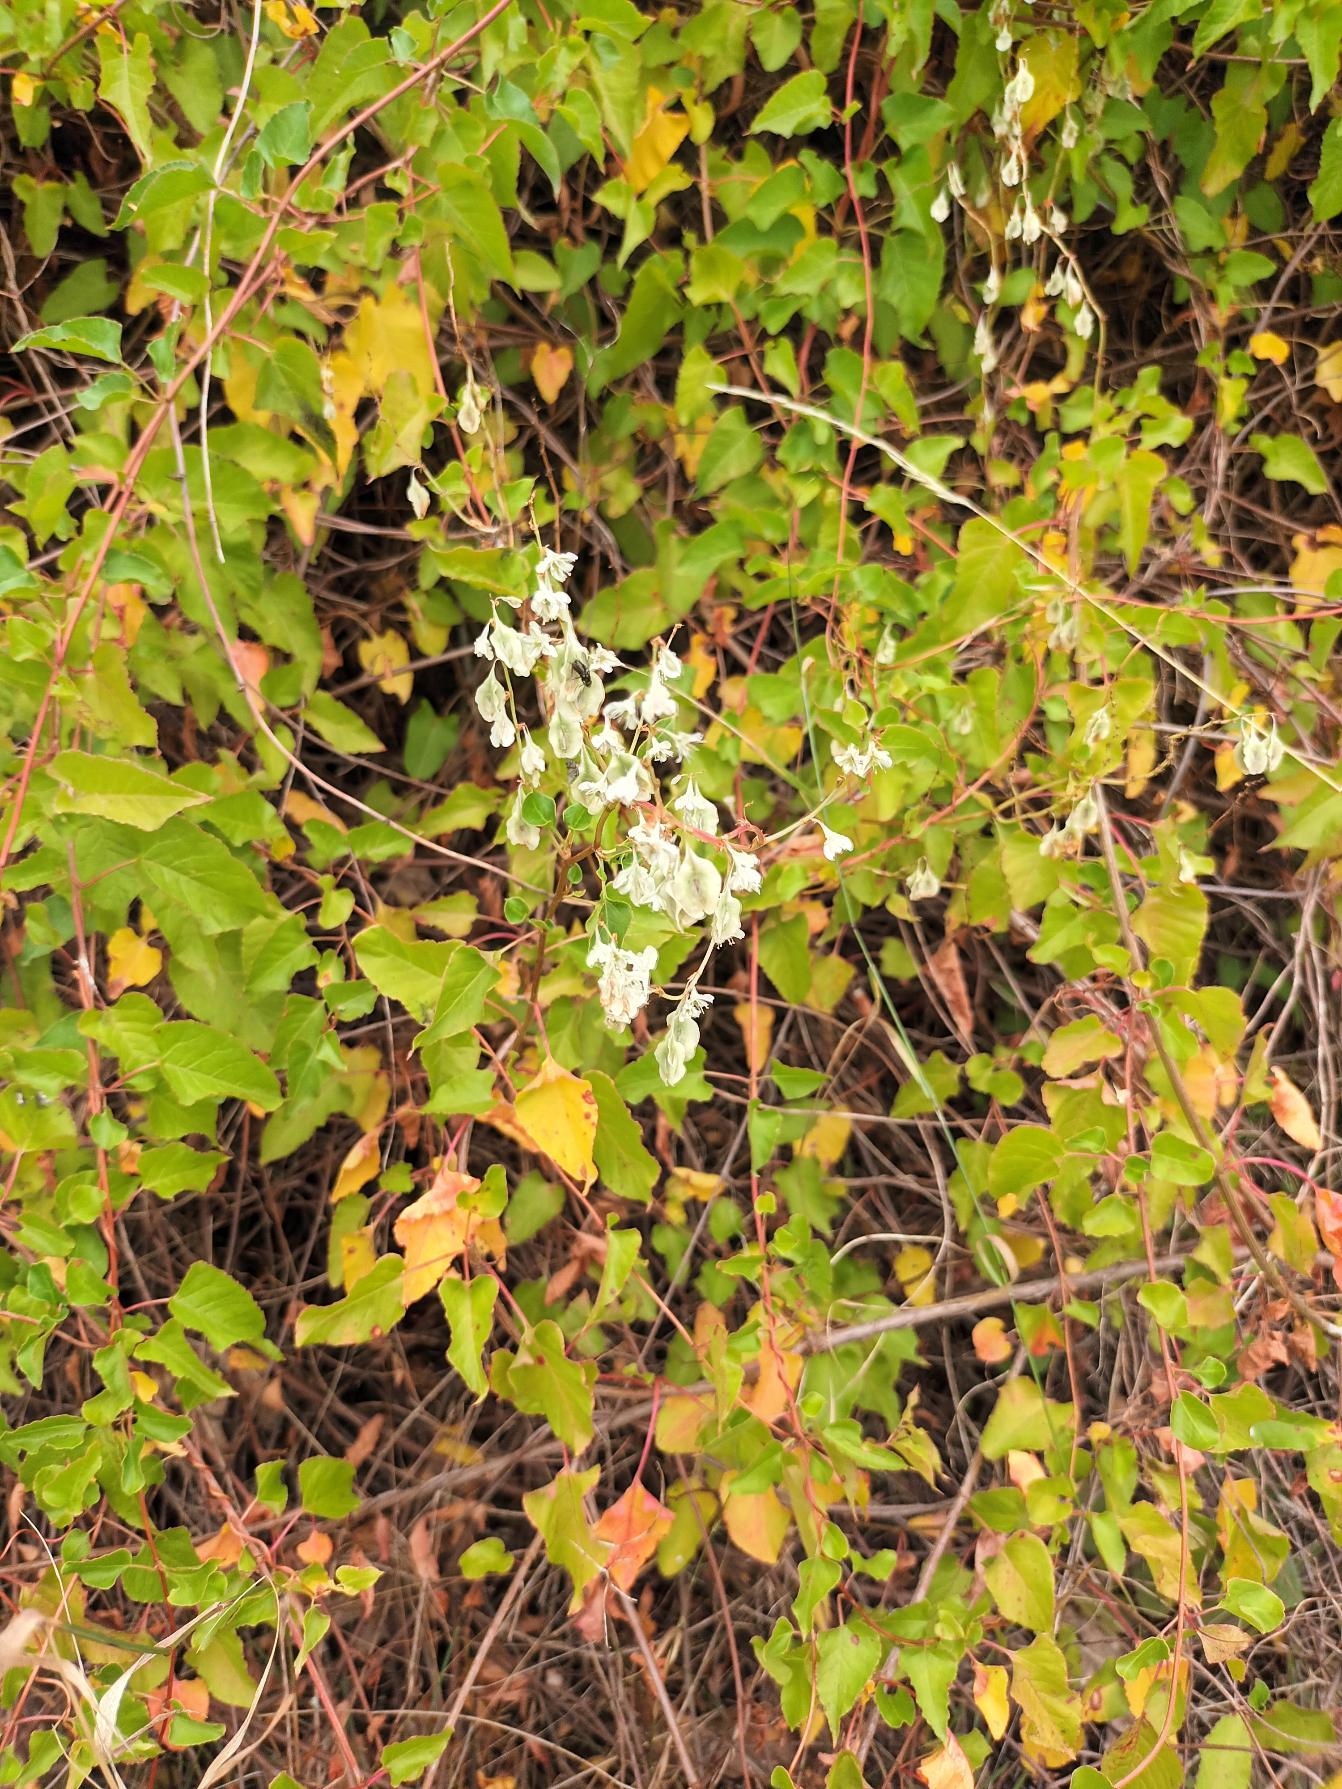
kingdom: Plantae
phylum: Tracheophyta
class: Magnoliopsida
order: Caryophyllales
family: Polygonaceae
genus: Fallopia
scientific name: Fallopia baldschuanica
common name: Sølvregn
